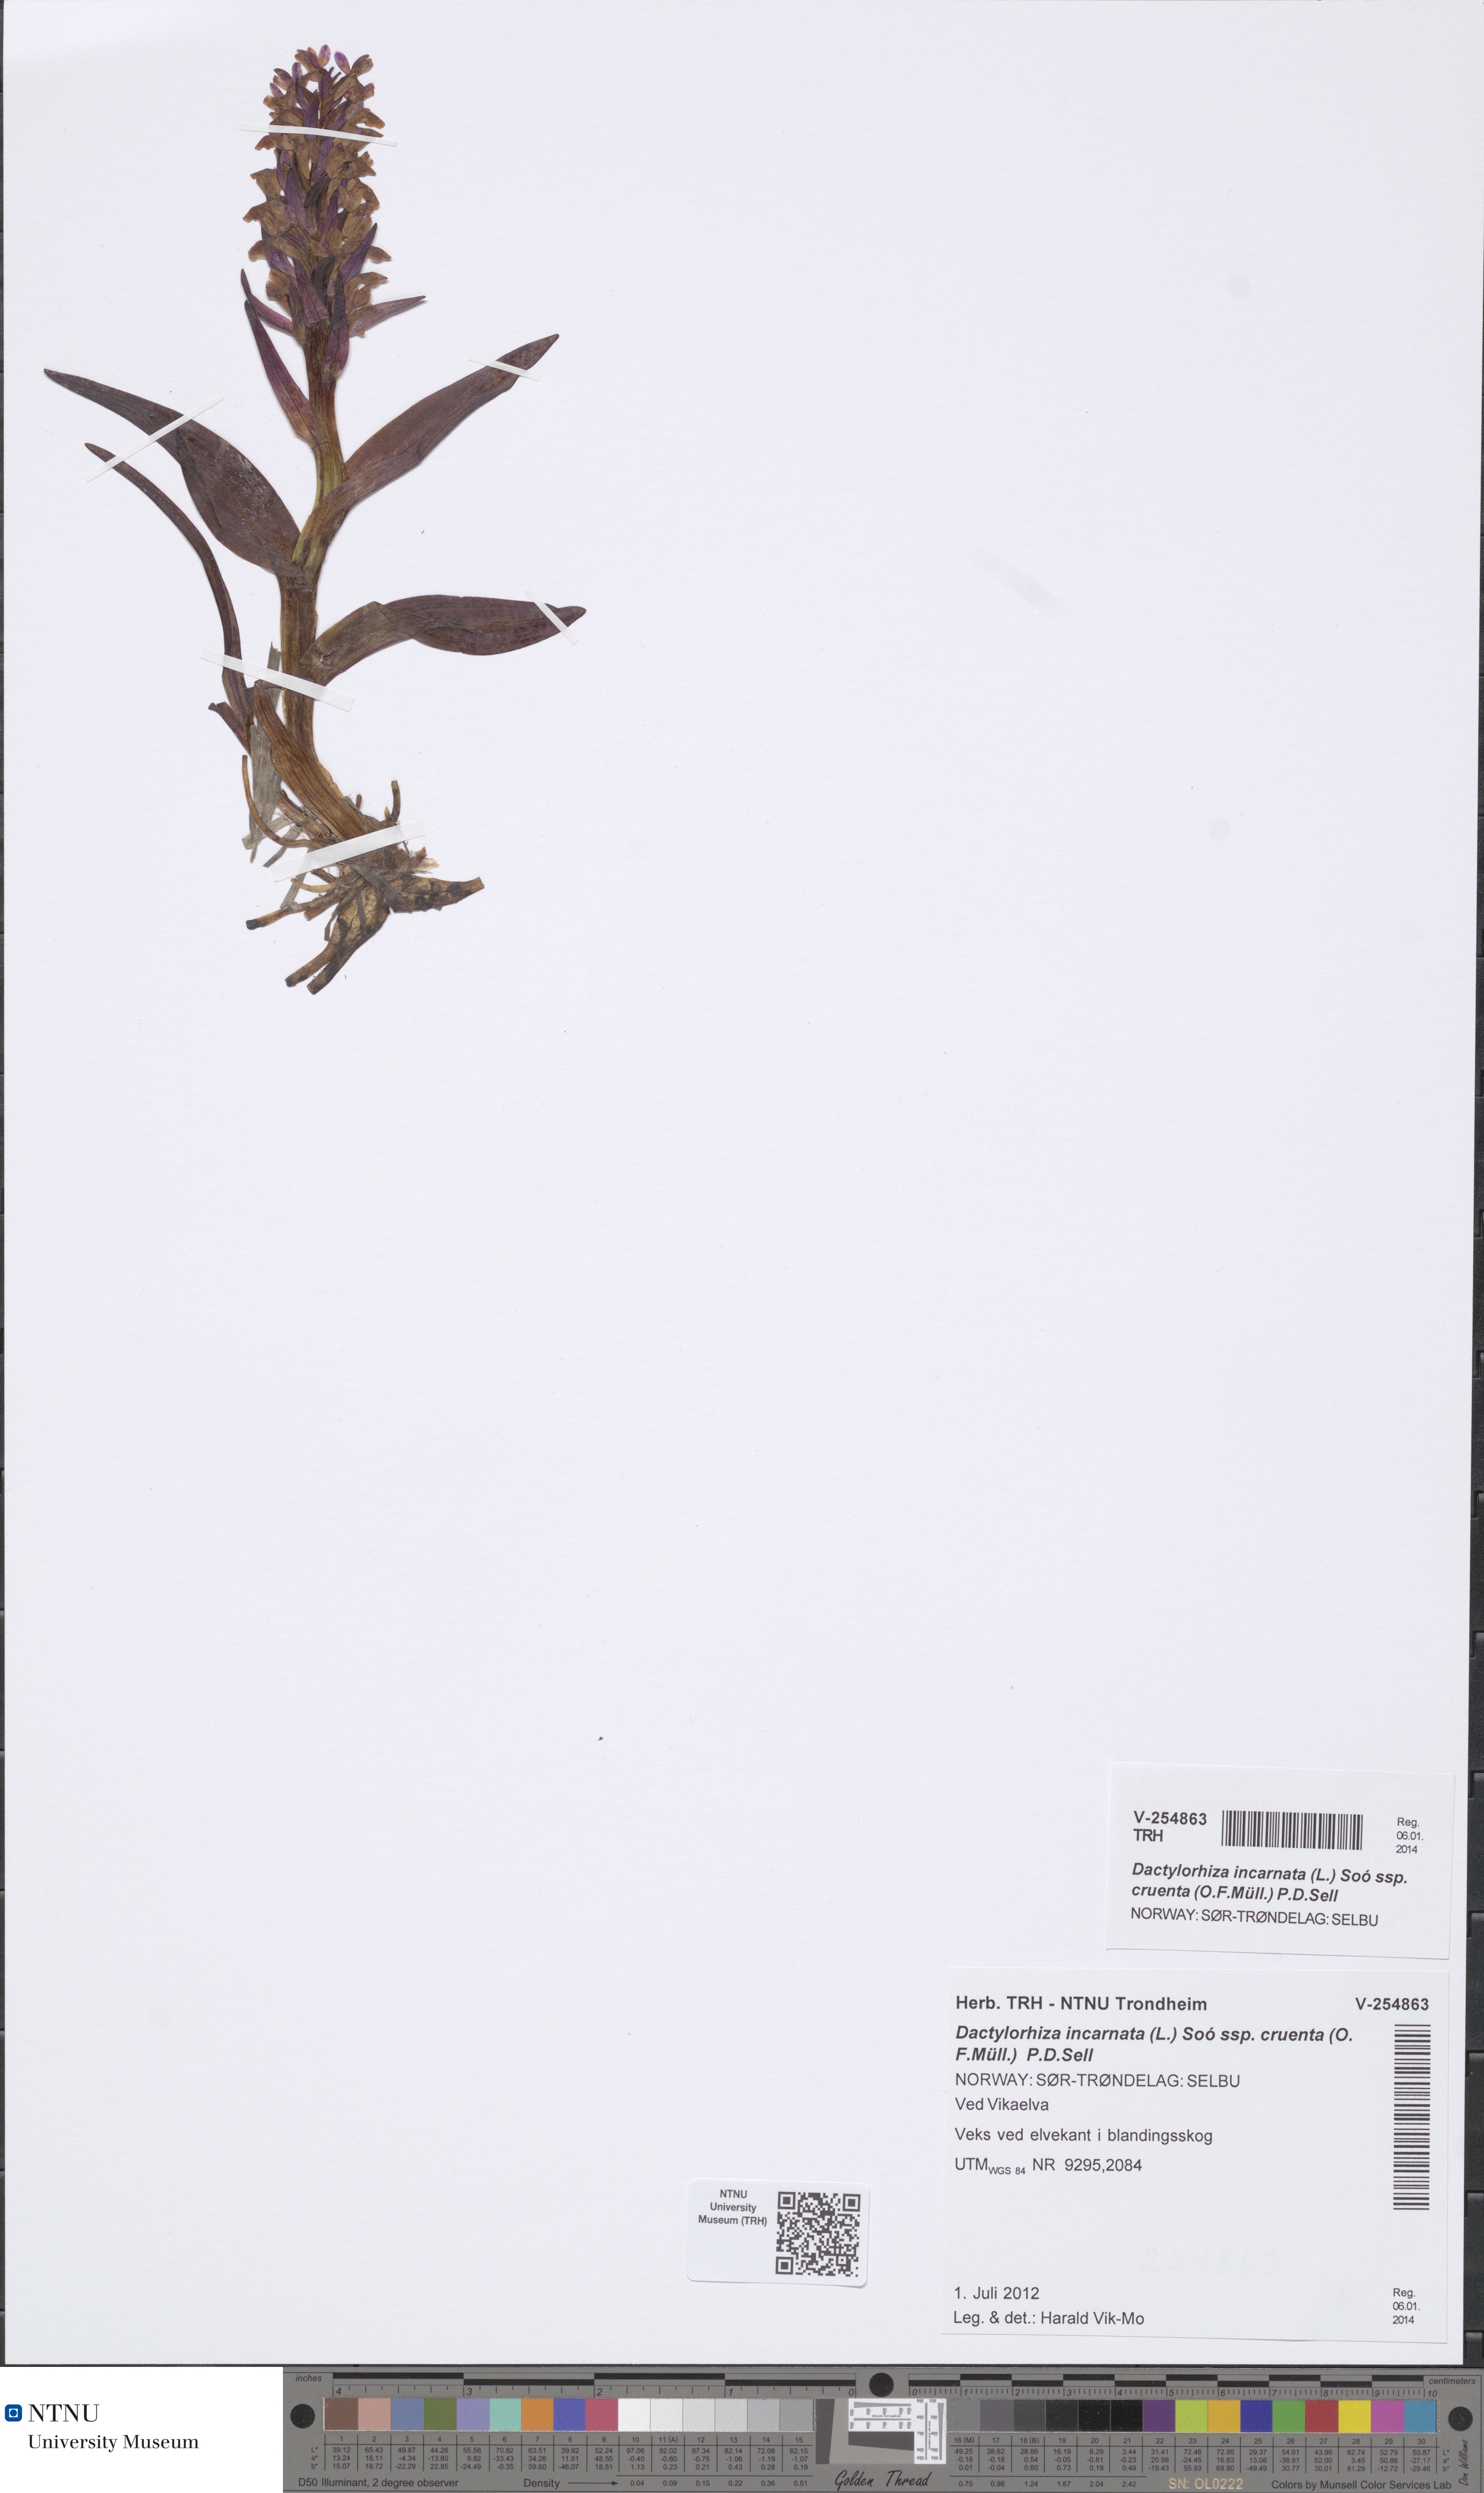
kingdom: Plantae
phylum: Tracheophyta
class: Liliopsida
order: Asparagales
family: Orchidaceae
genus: Dactylorhiza
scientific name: Dactylorhiza incarnata
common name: Early marsh-orchid
